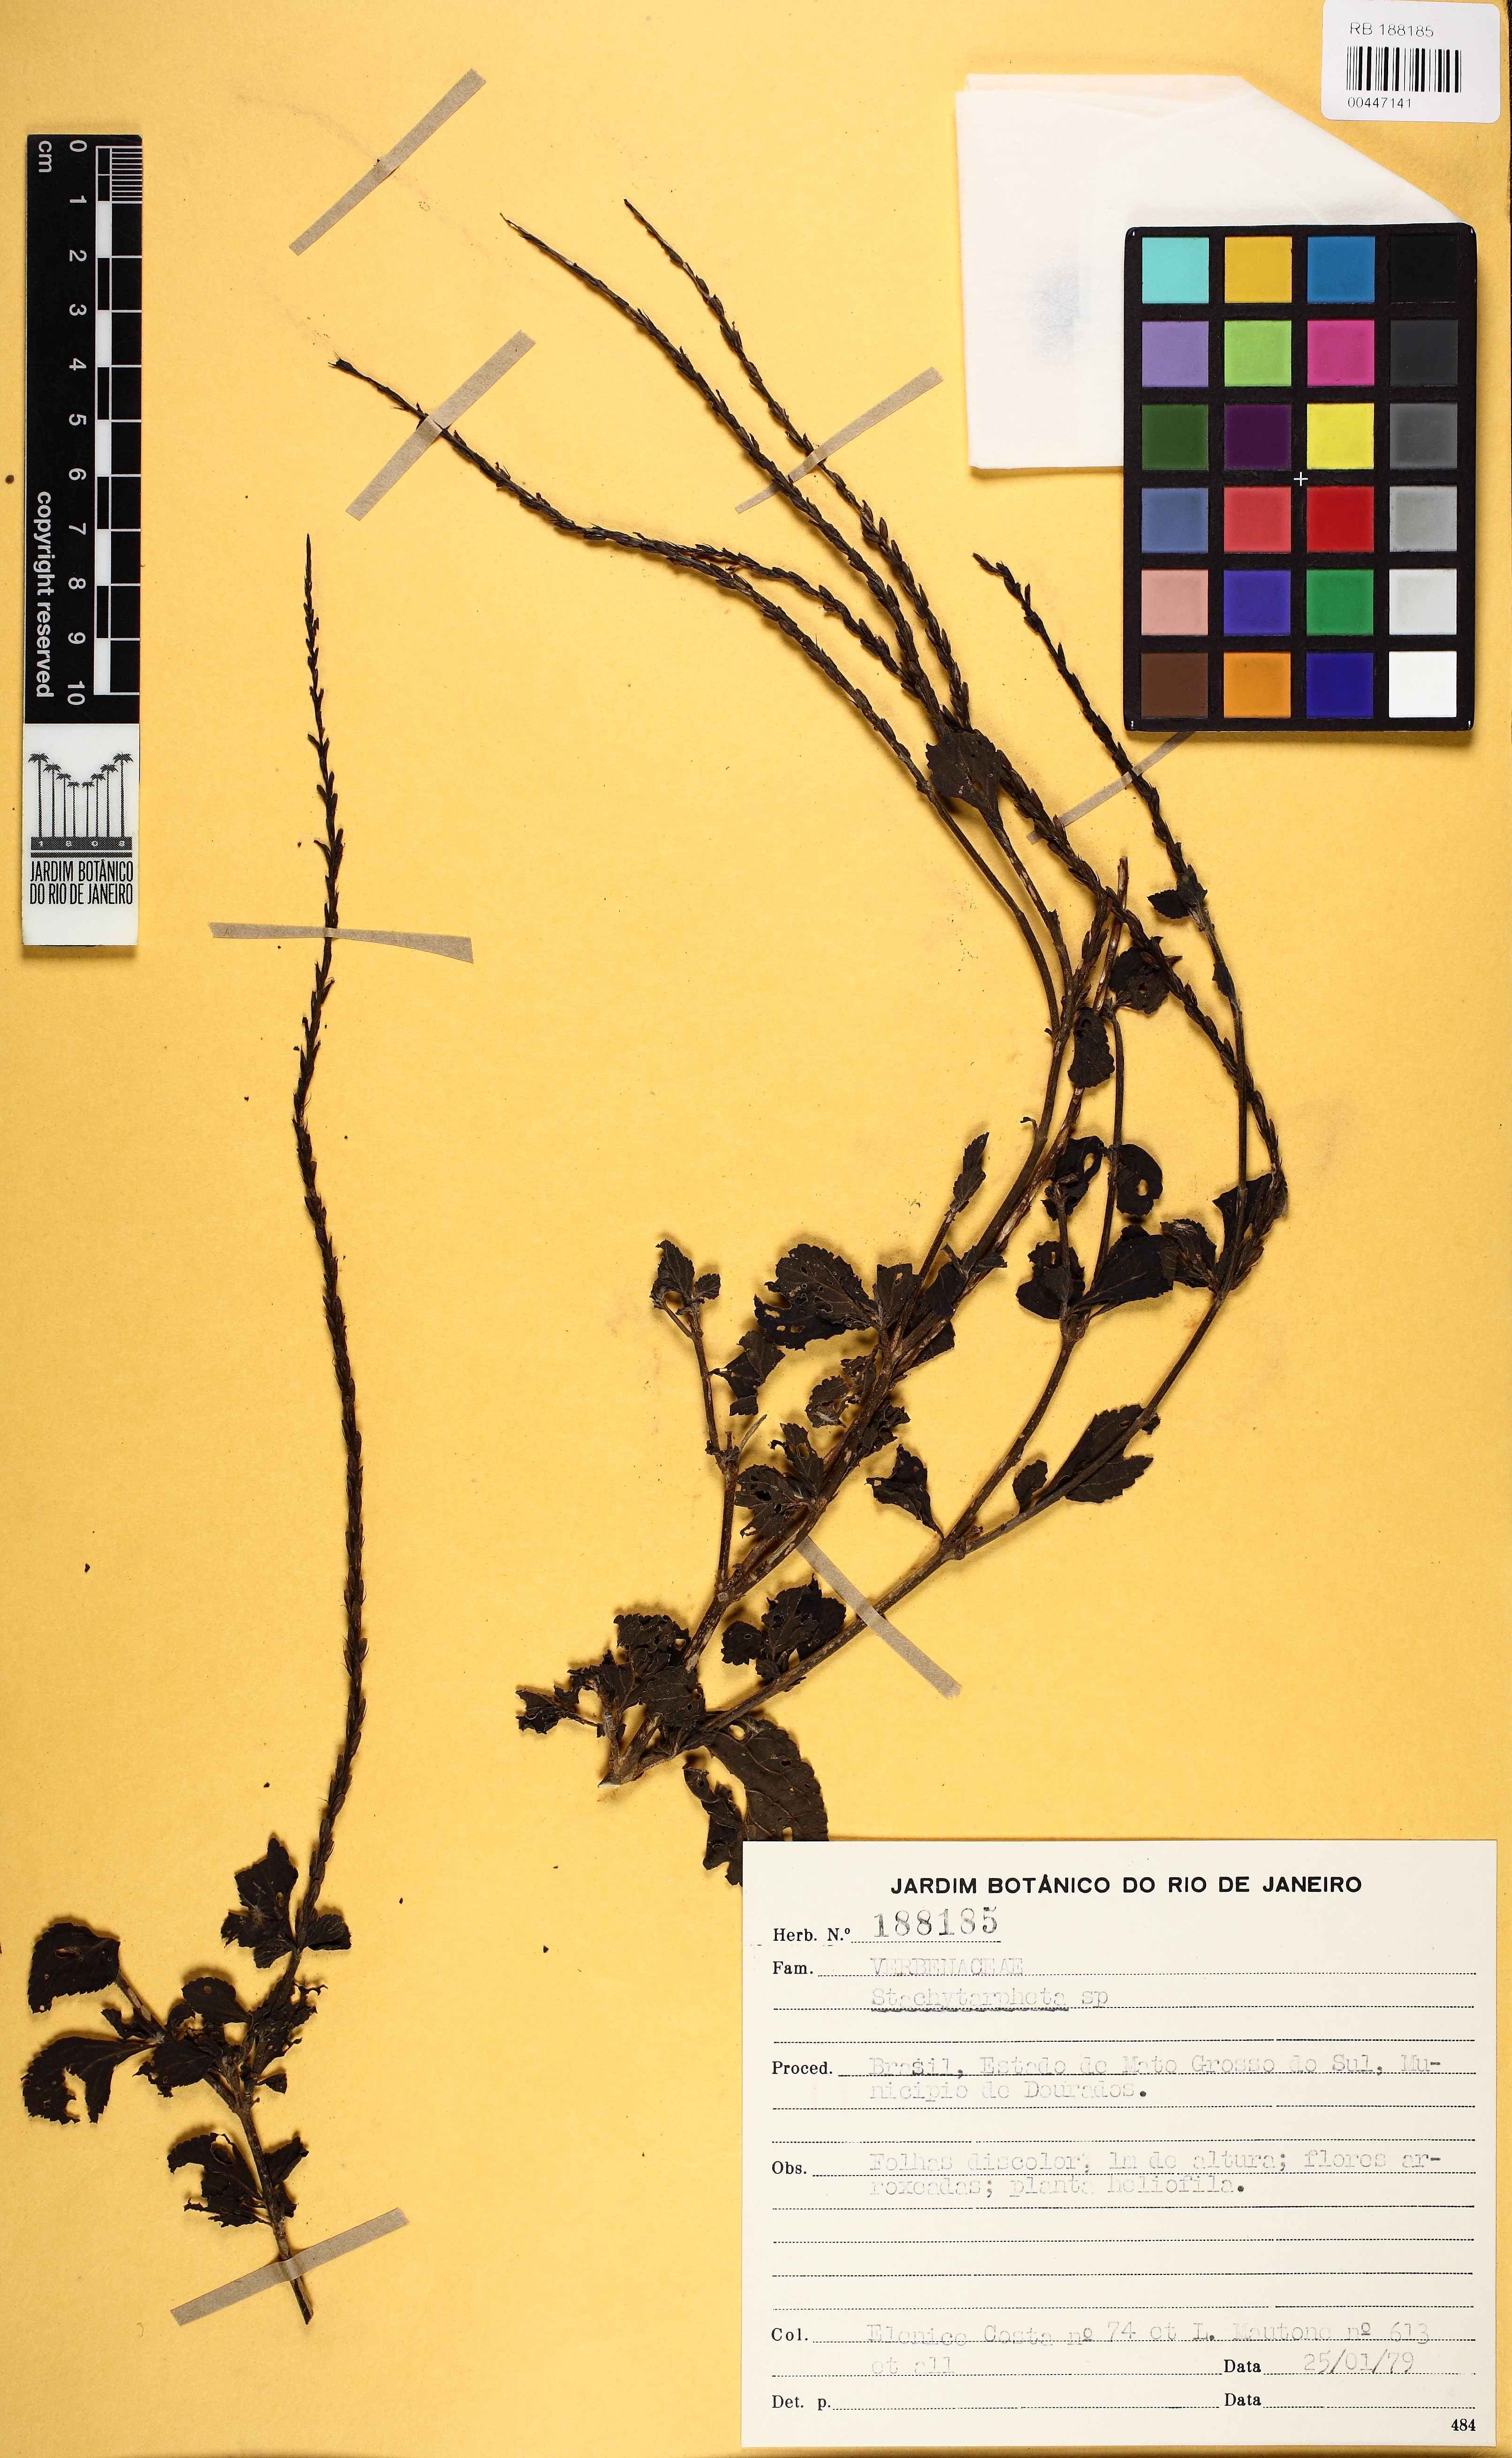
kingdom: Plantae
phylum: Tracheophyta
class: Magnoliopsida
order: Lamiales
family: Verbenaceae
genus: Stachytarpheta
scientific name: Stachytarpheta cayennensis
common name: Cayenne porterweed
